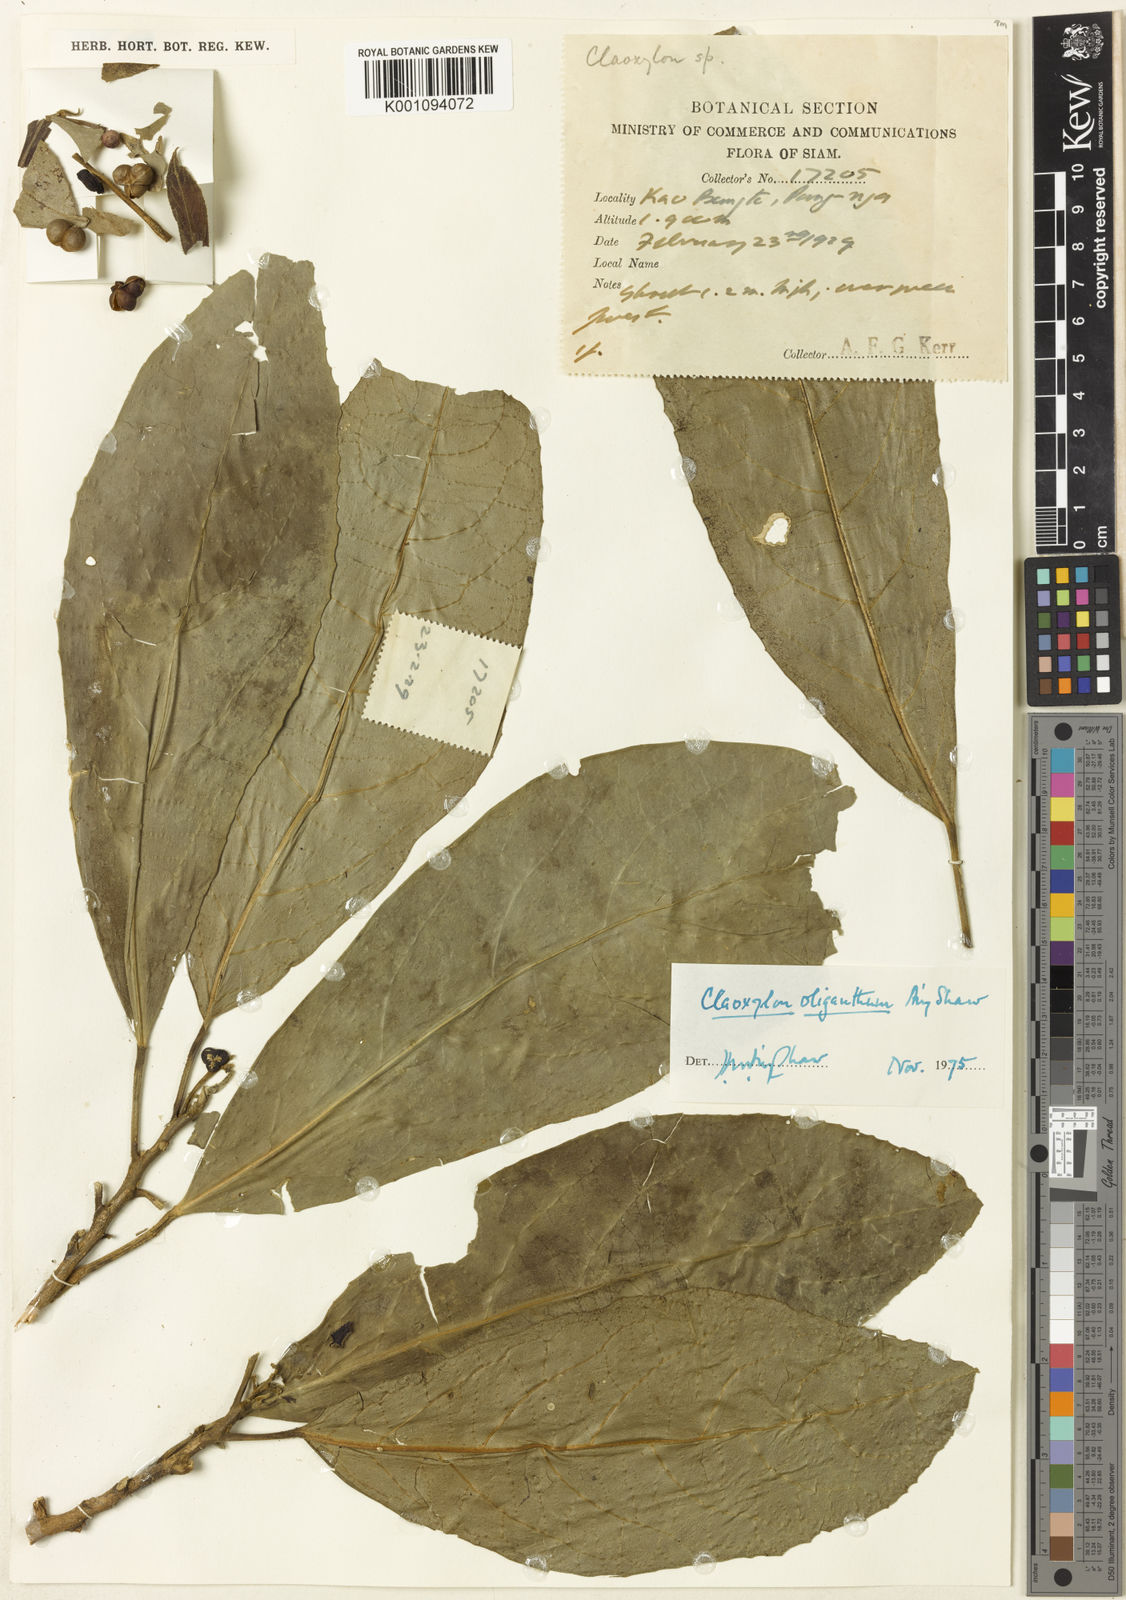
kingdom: Plantae
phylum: Tracheophyta
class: Magnoliopsida
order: Malpighiales
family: Euphorbiaceae
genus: Claoxylon
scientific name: Claoxylon oliganthum
